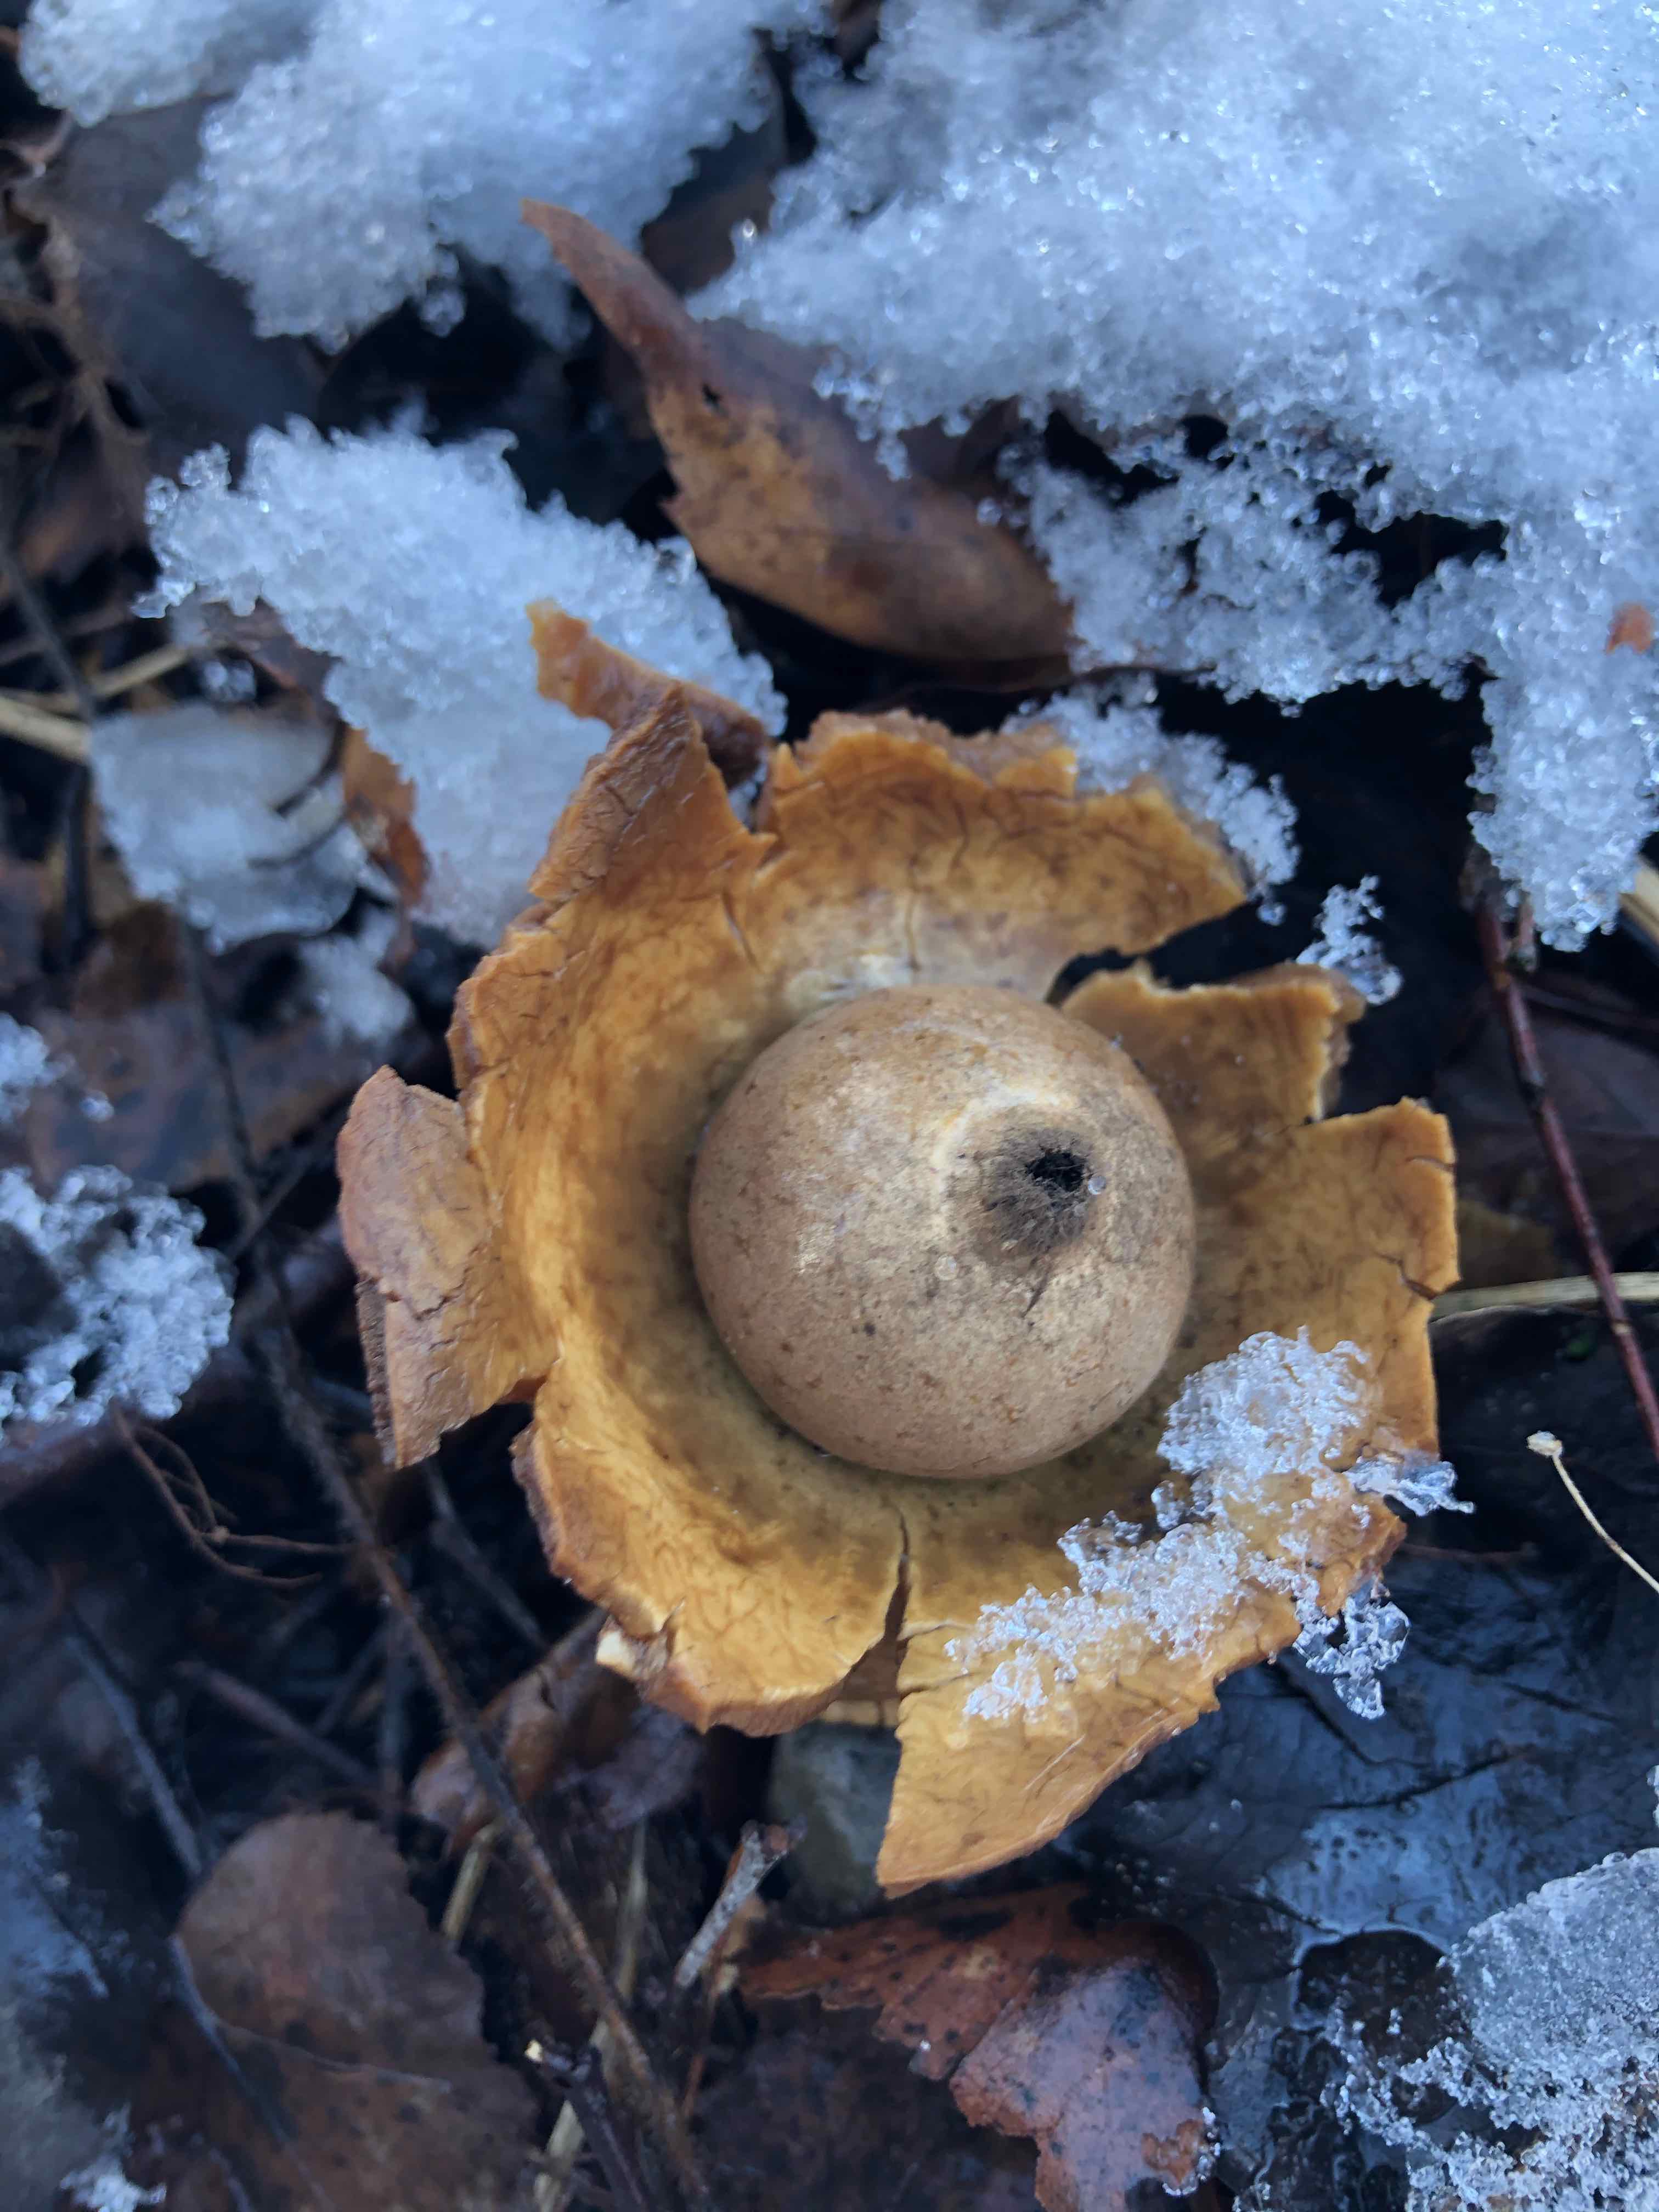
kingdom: Fungi
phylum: Basidiomycota
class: Agaricomycetes
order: Geastrales
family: Geastraceae
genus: Geastrum
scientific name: Geastrum michelianum
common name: kødet stjernebold
